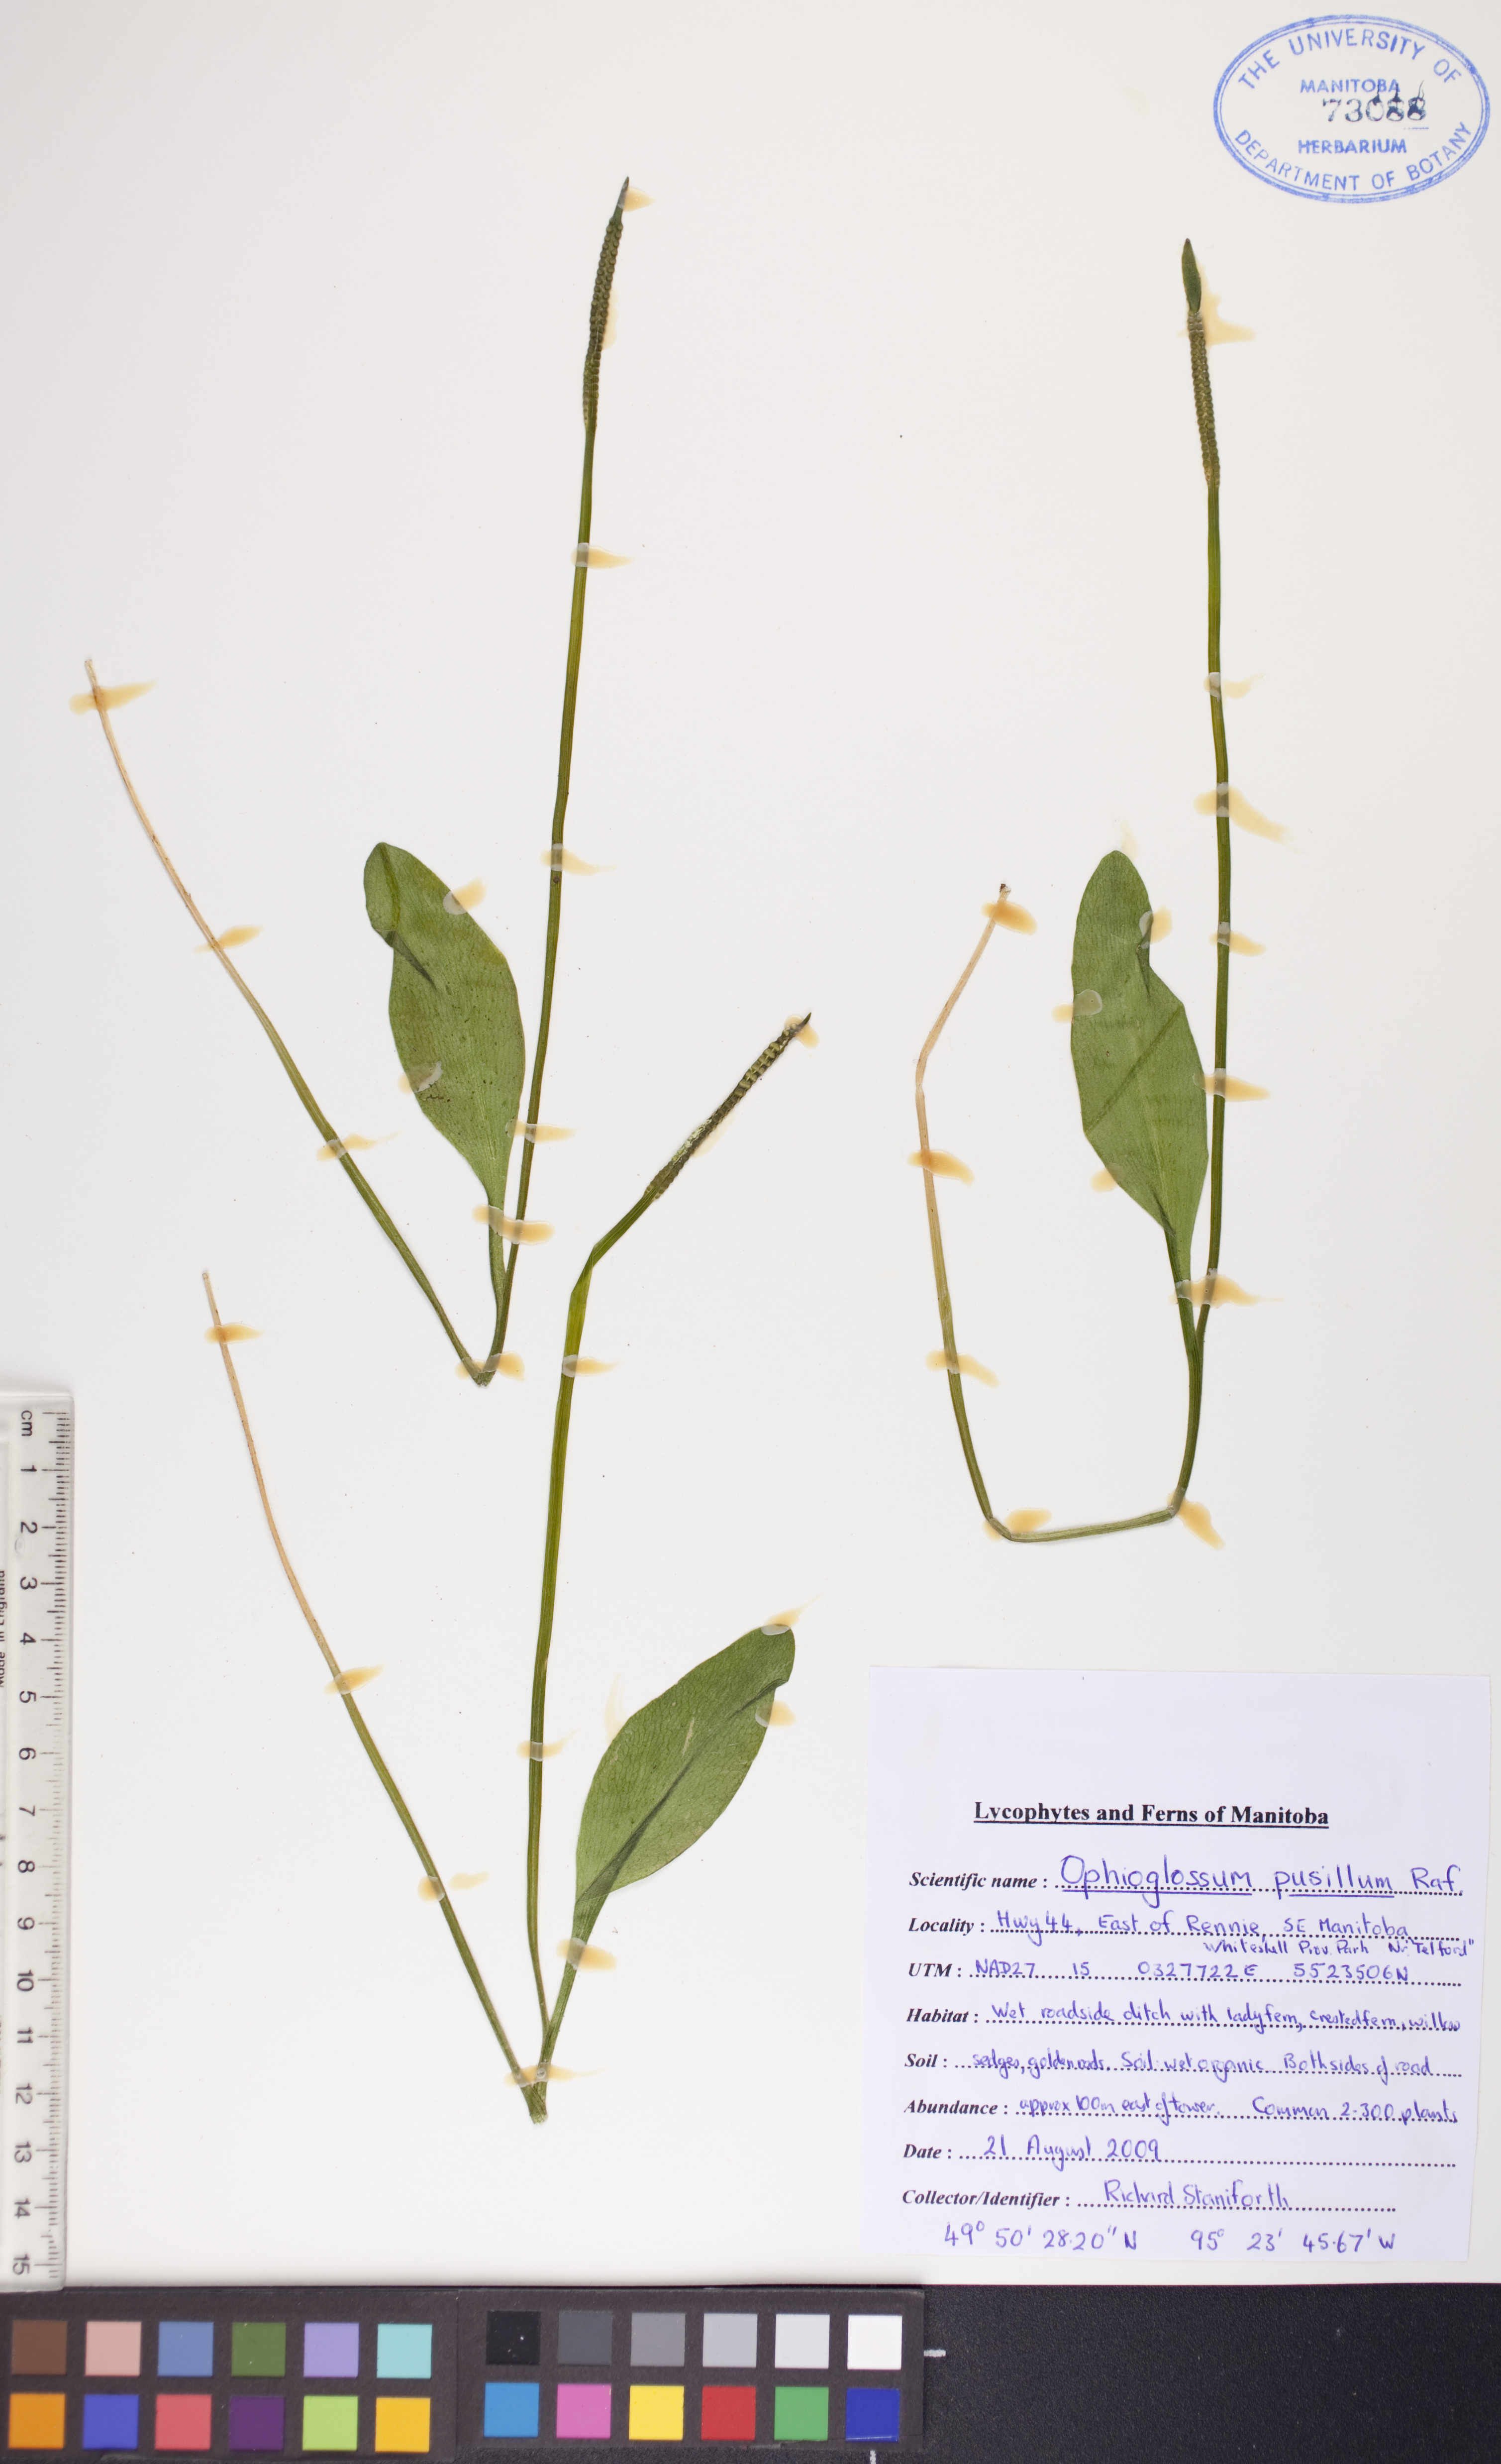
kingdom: Plantae
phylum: Tracheophyta
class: Polypodiopsida
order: Ophioglossales
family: Ophioglossaceae
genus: Ophioglossum
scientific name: Ophioglossum pusillum
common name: Northern adder's-tongue
